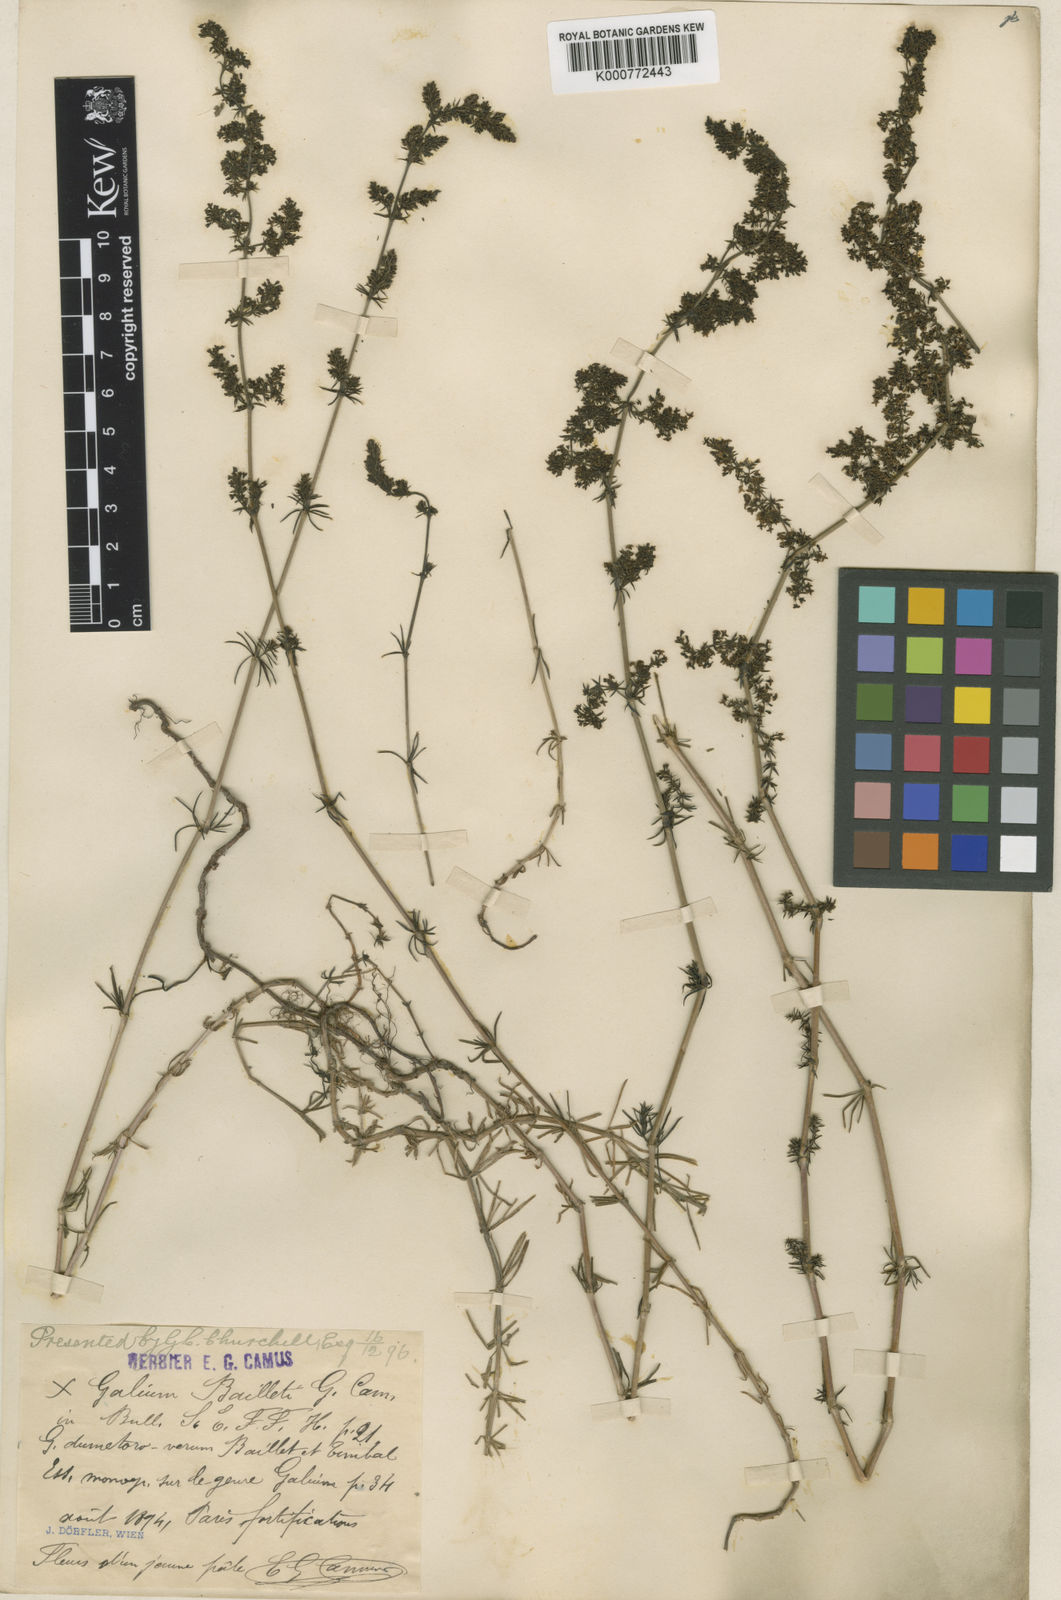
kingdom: Plantae
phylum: Tracheophyta
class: Magnoliopsida
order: Gentianales
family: Rubiaceae
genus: Galium
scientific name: Galium pomeranicum
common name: Bedstraw
